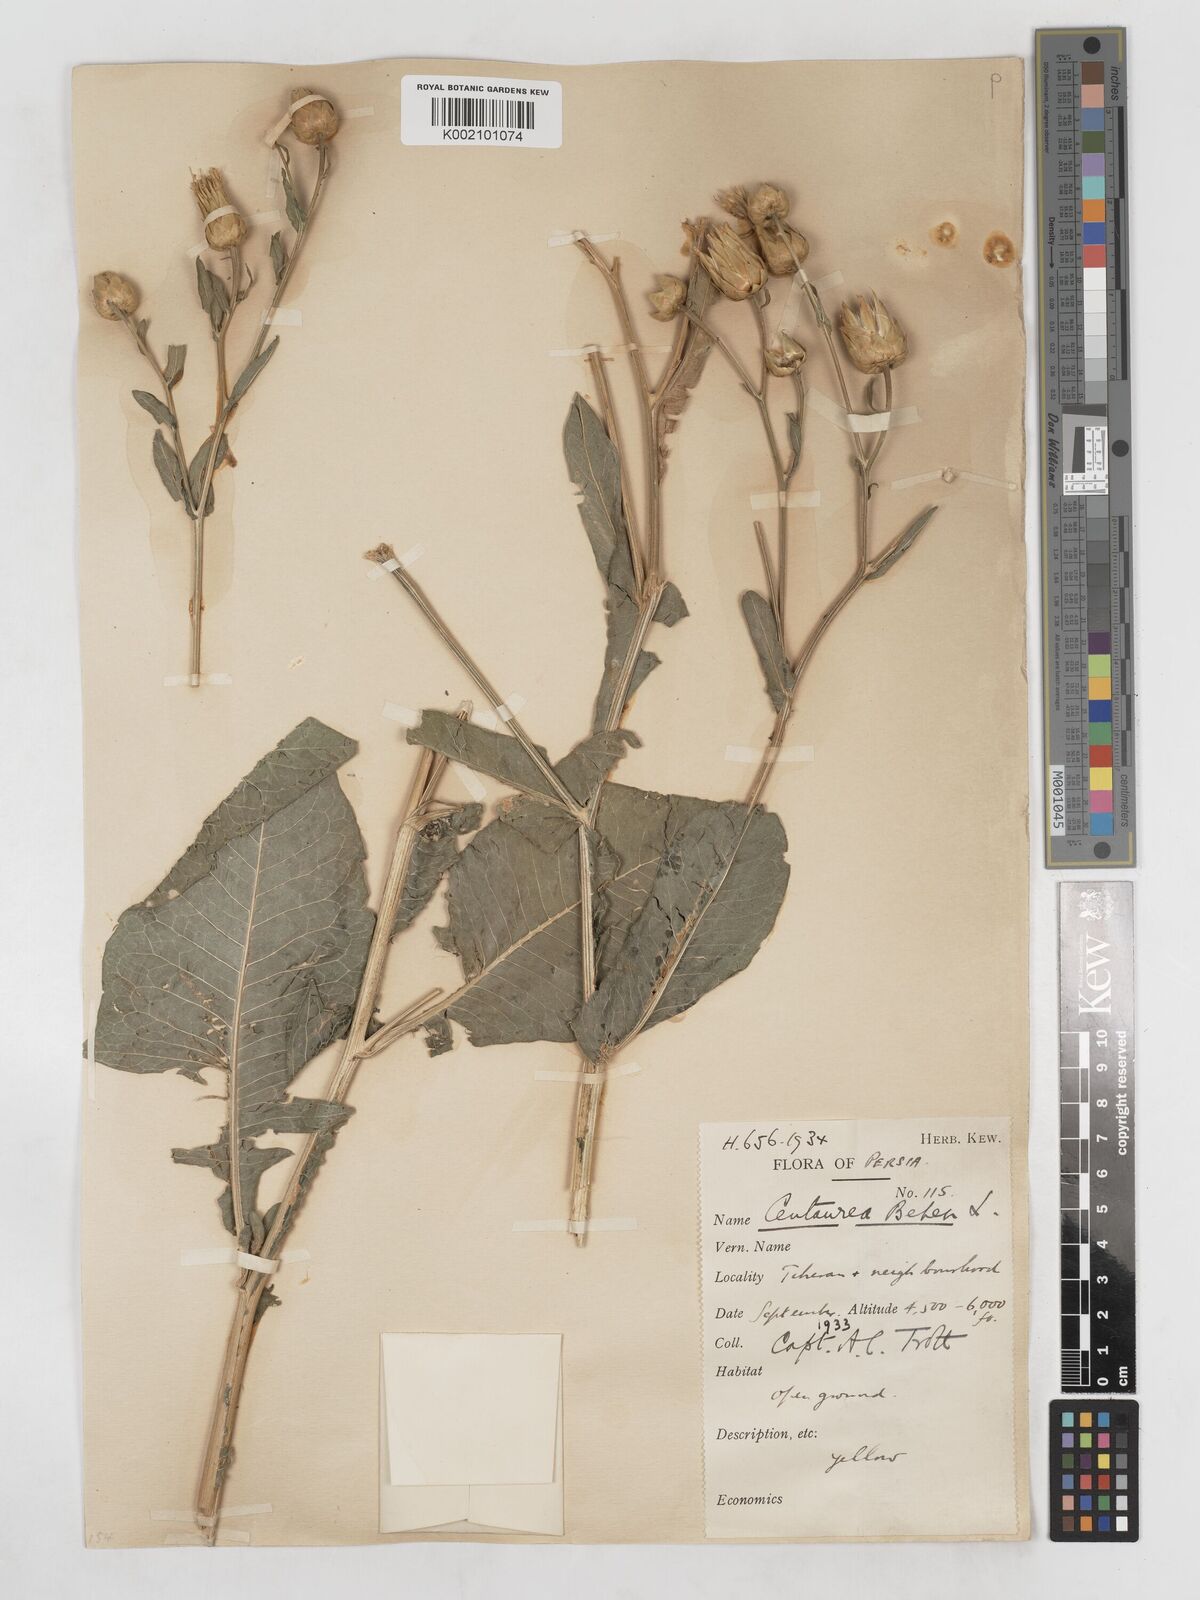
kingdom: Plantae
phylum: Tracheophyta
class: Magnoliopsida
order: Asterales
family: Asteraceae
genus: Centaurea
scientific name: Centaurea behen
